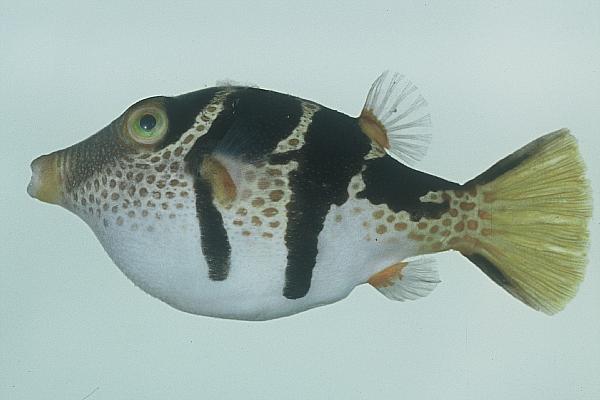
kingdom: Animalia
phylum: Chordata
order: Tetraodontiformes
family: Tetraodontidae
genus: Canthigaster
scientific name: Canthigaster valentini
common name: Banded toby
